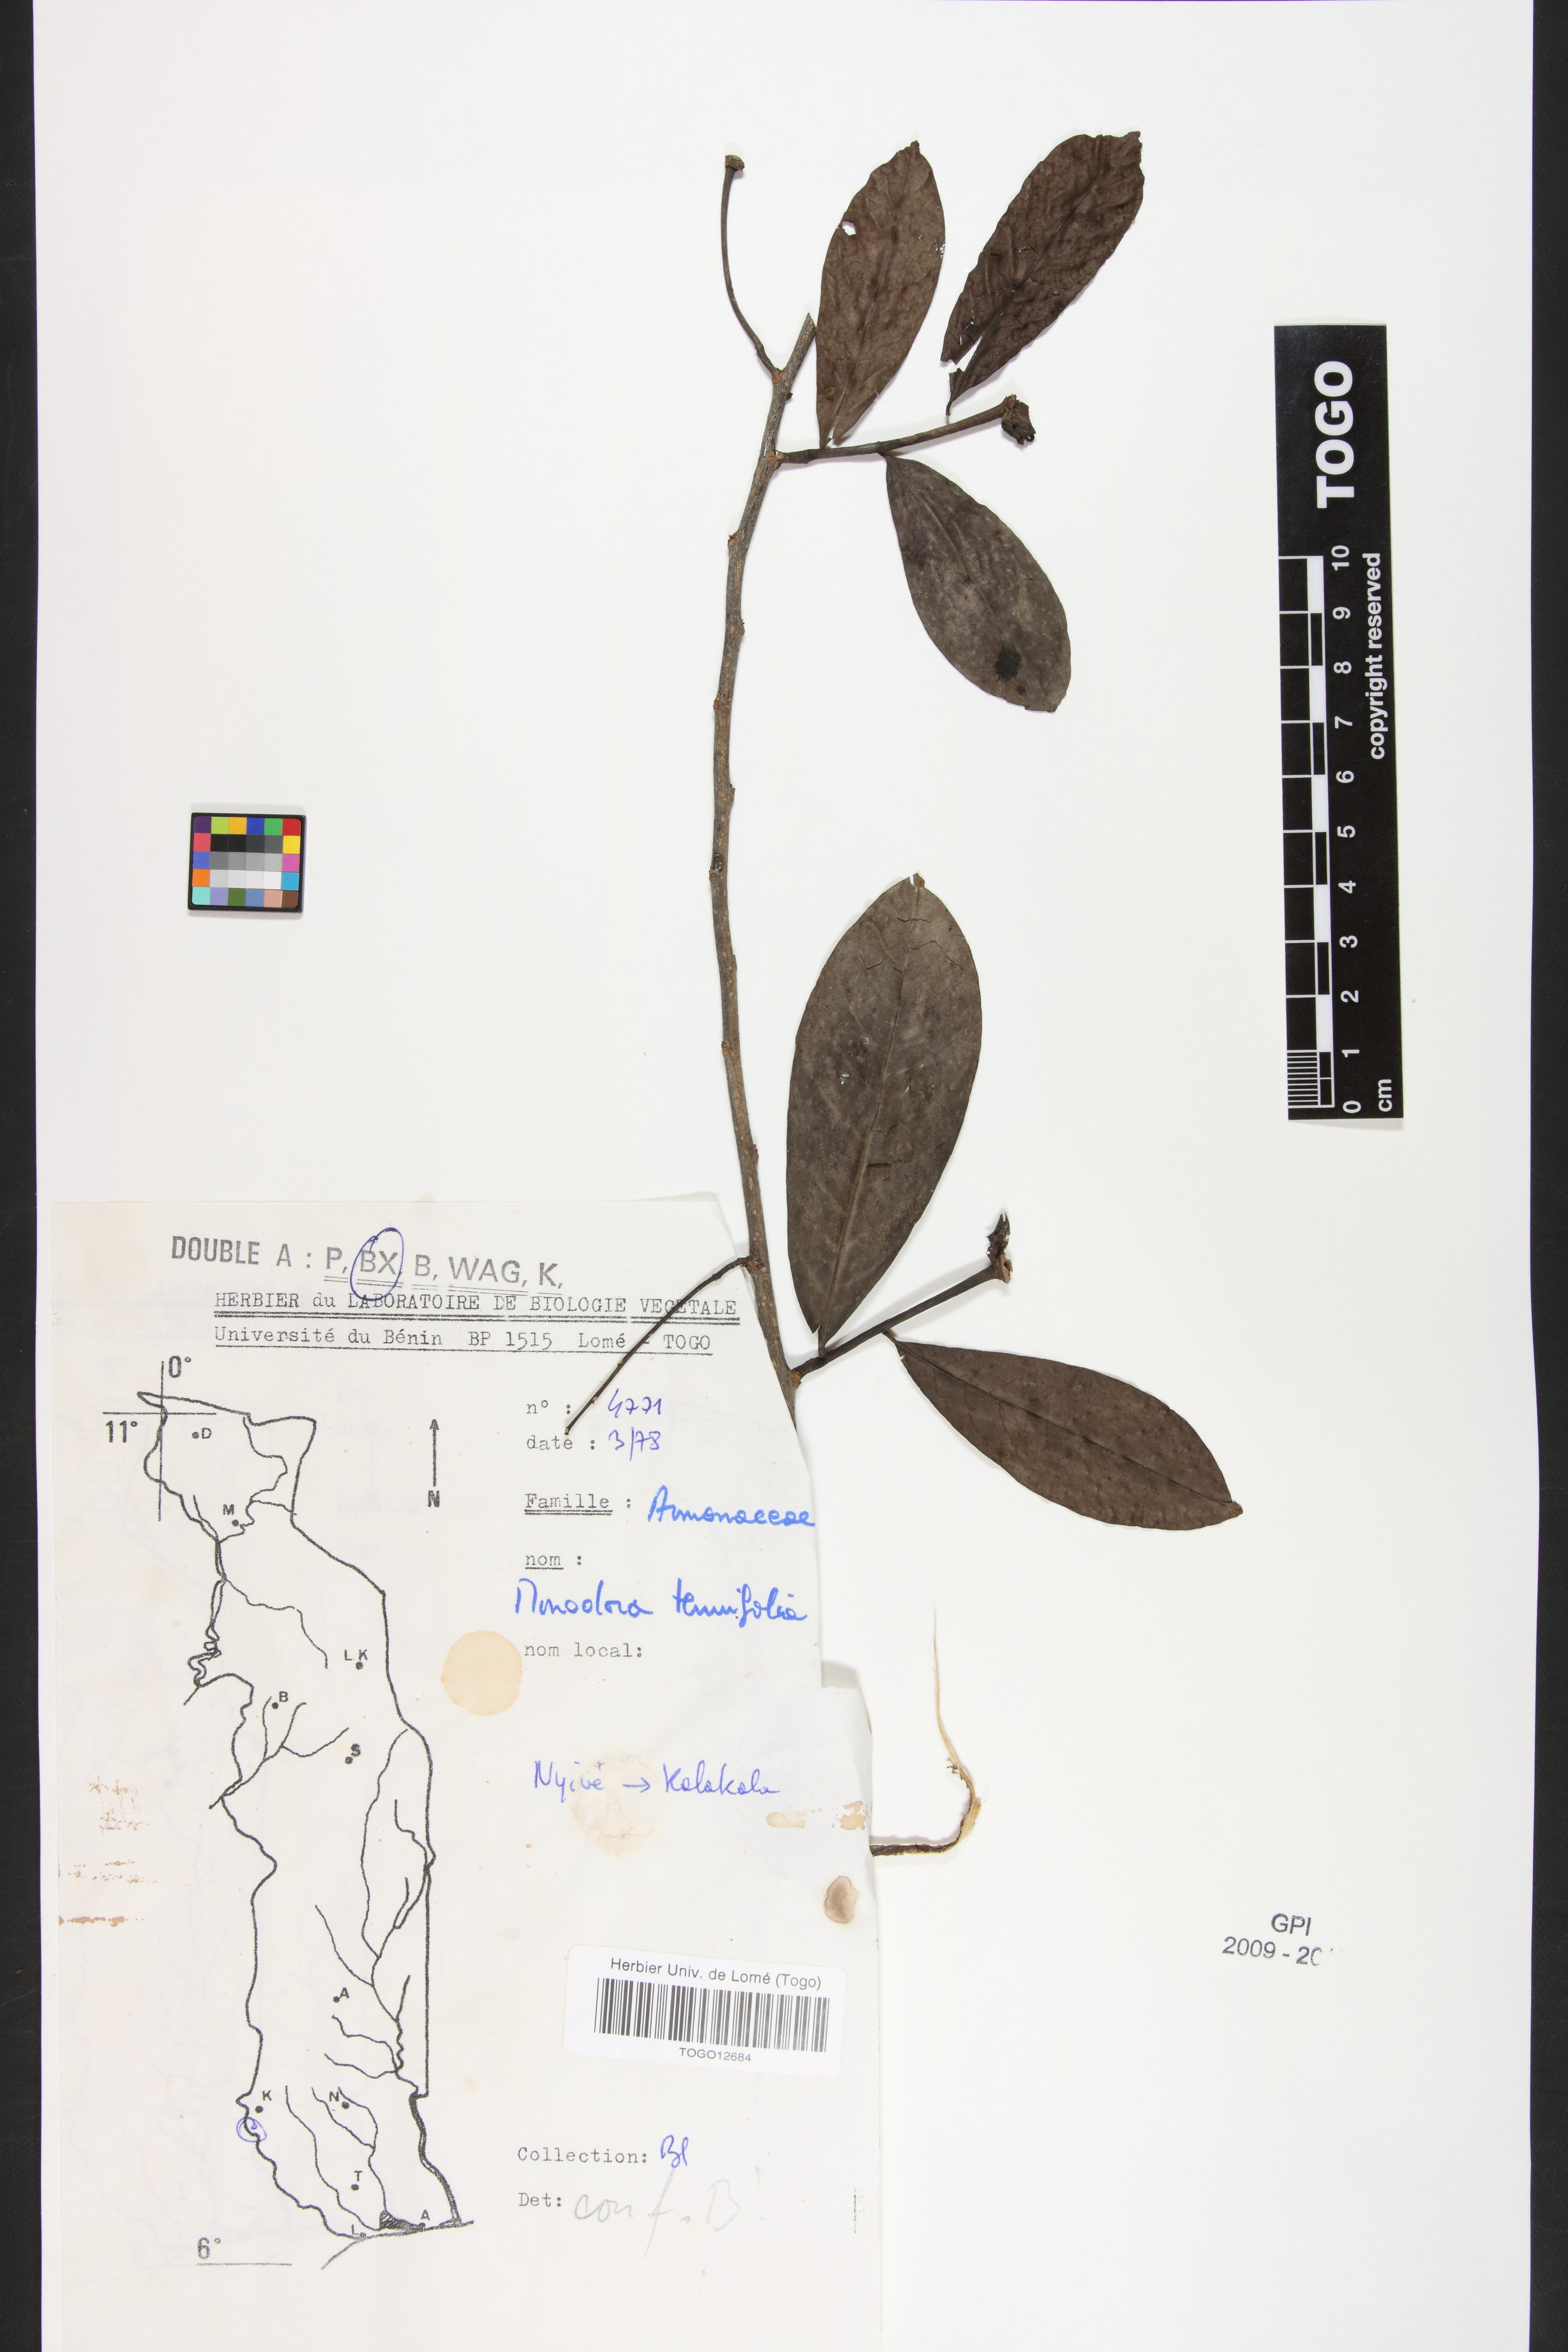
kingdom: Plantae
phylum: Tracheophyta
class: Magnoliopsida
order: Magnoliales
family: Annonaceae
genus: Monodora
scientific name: Monodora tenuifolia
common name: Orchidtree
